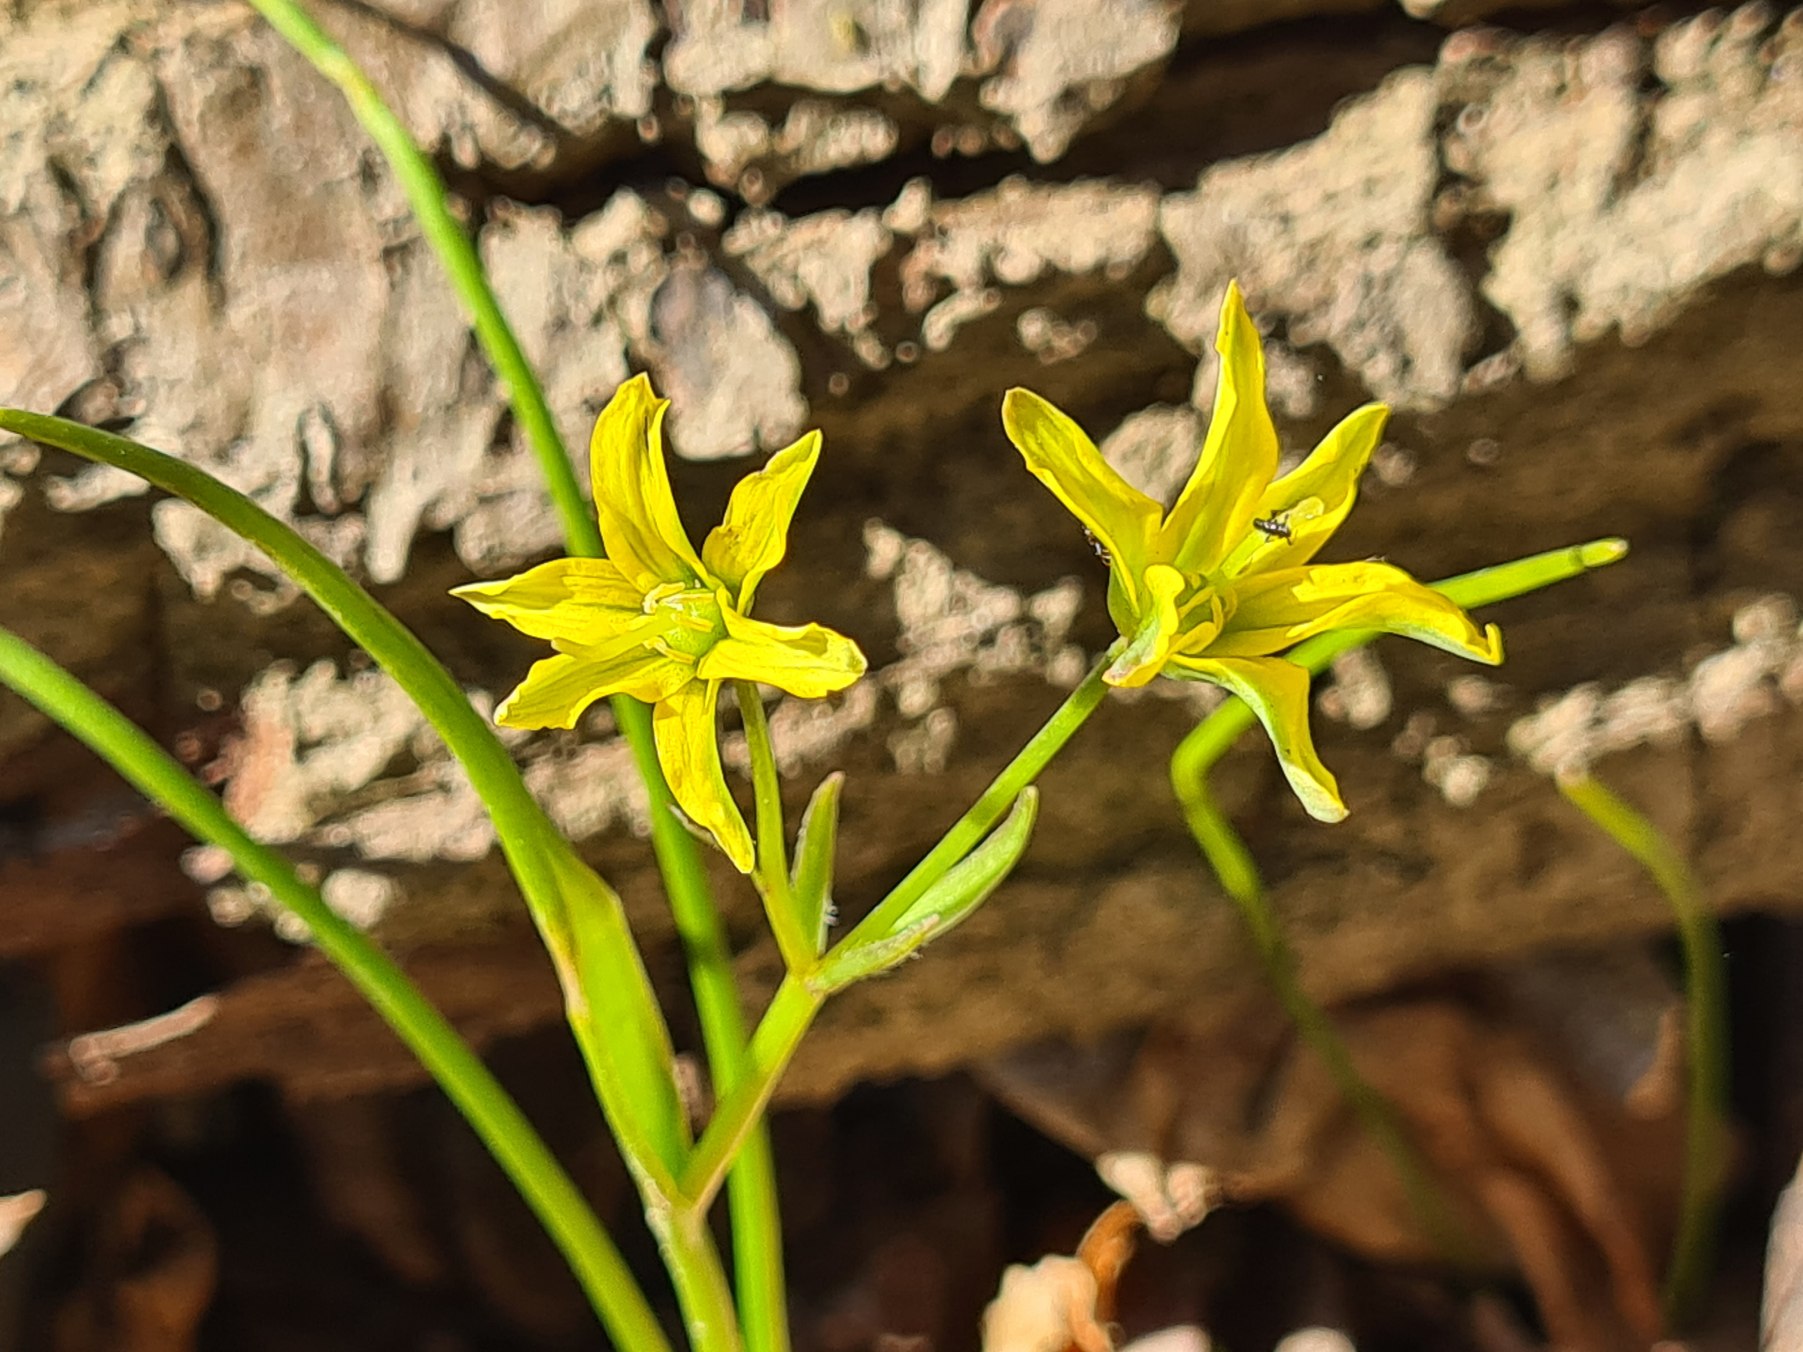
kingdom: Plantae
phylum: Tracheophyta
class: Liliopsida
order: Liliales
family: Liliaceae
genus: Gagea
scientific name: Gagea spathacea
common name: Hylster-guldstjerne
